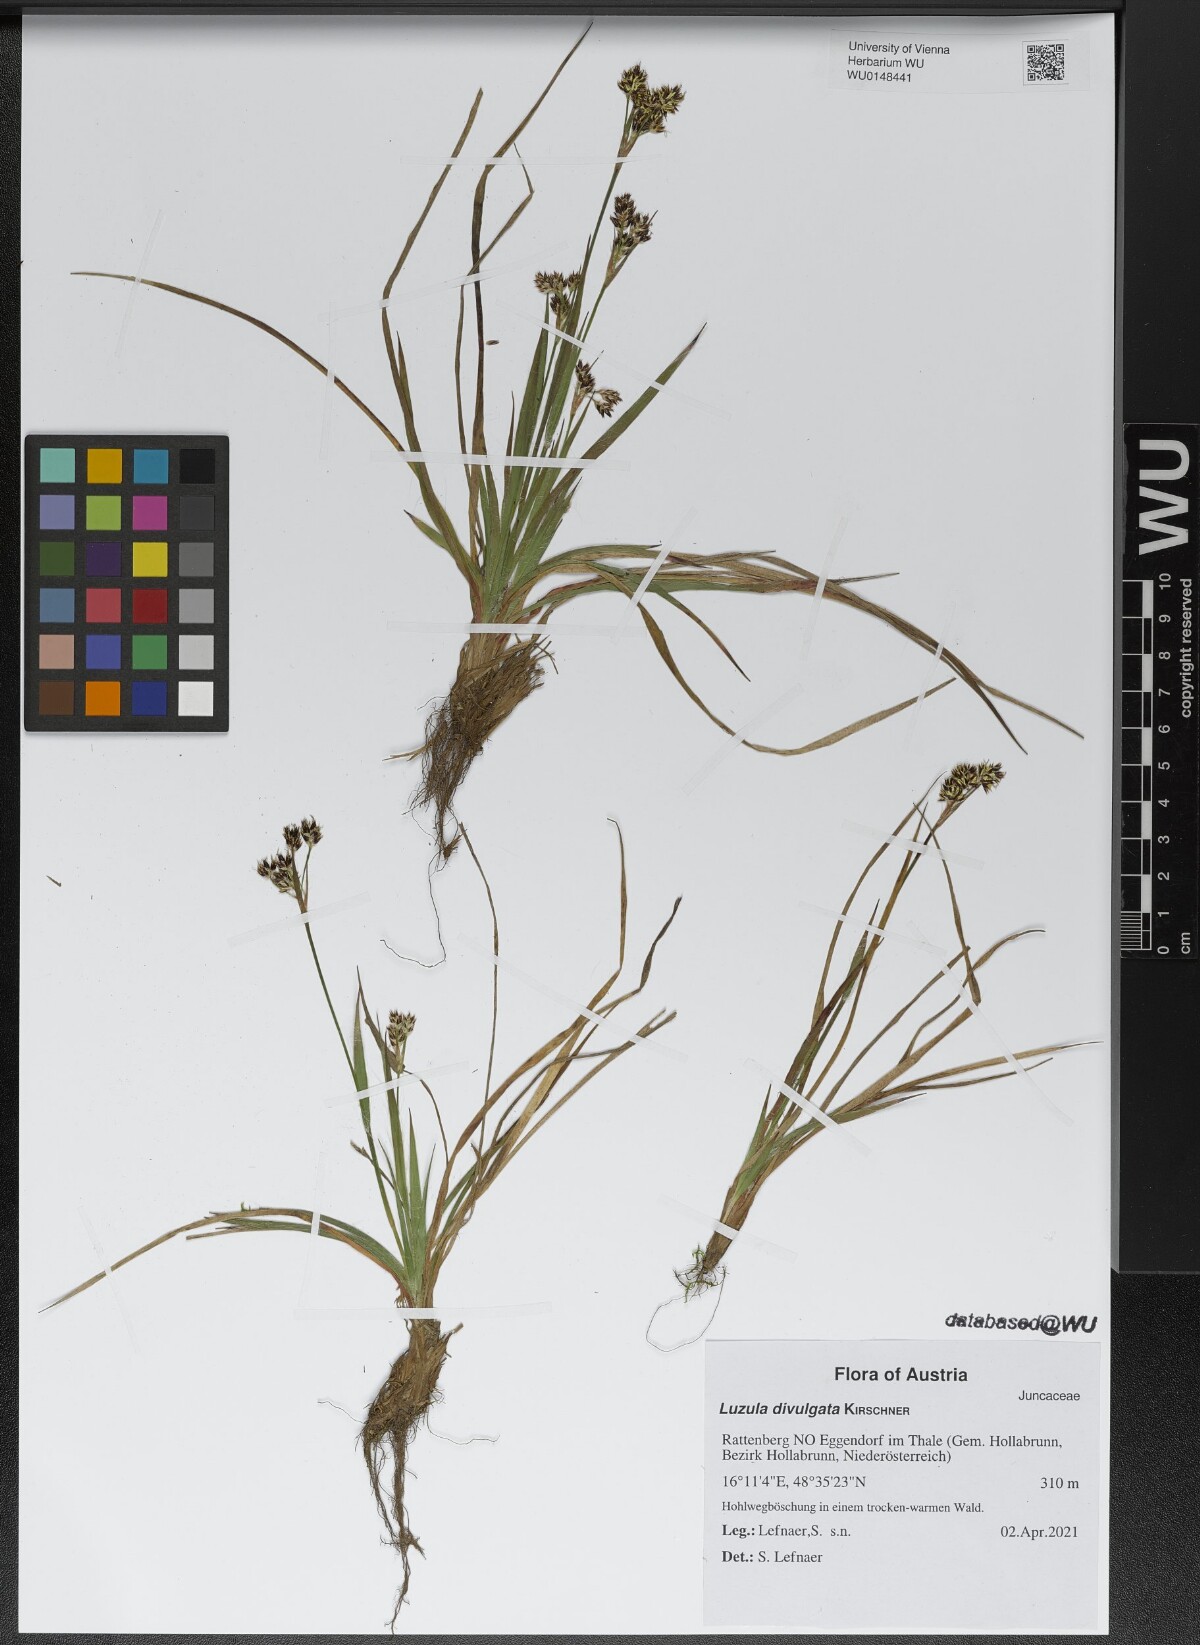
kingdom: Plantae
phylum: Tracheophyta
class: Liliopsida
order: Poales
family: Juncaceae
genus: Luzula
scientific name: Luzula divulgata
